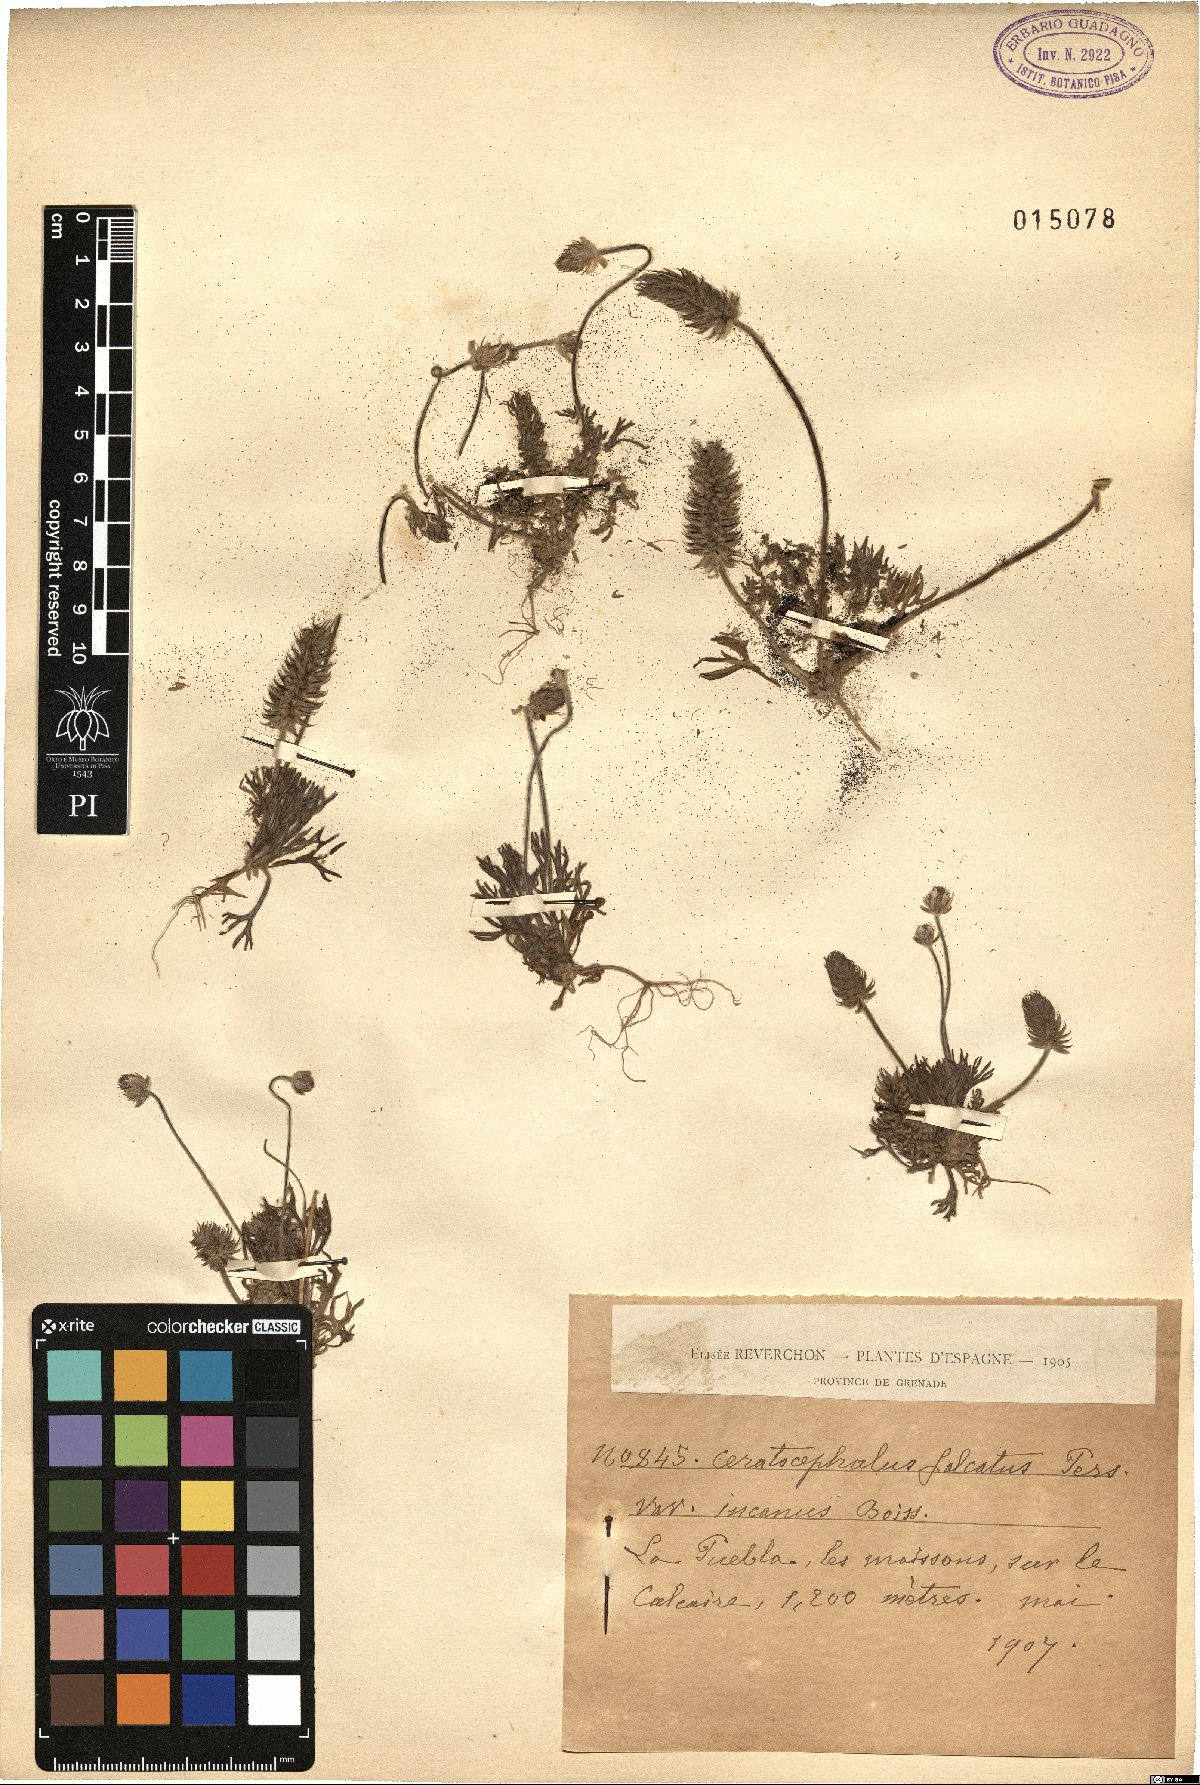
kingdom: Plantae
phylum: Tracheophyta
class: Magnoliopsida
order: Ranunculales
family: Ranunculaceae
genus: Ceratocephala
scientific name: Ceratocephala falcata
